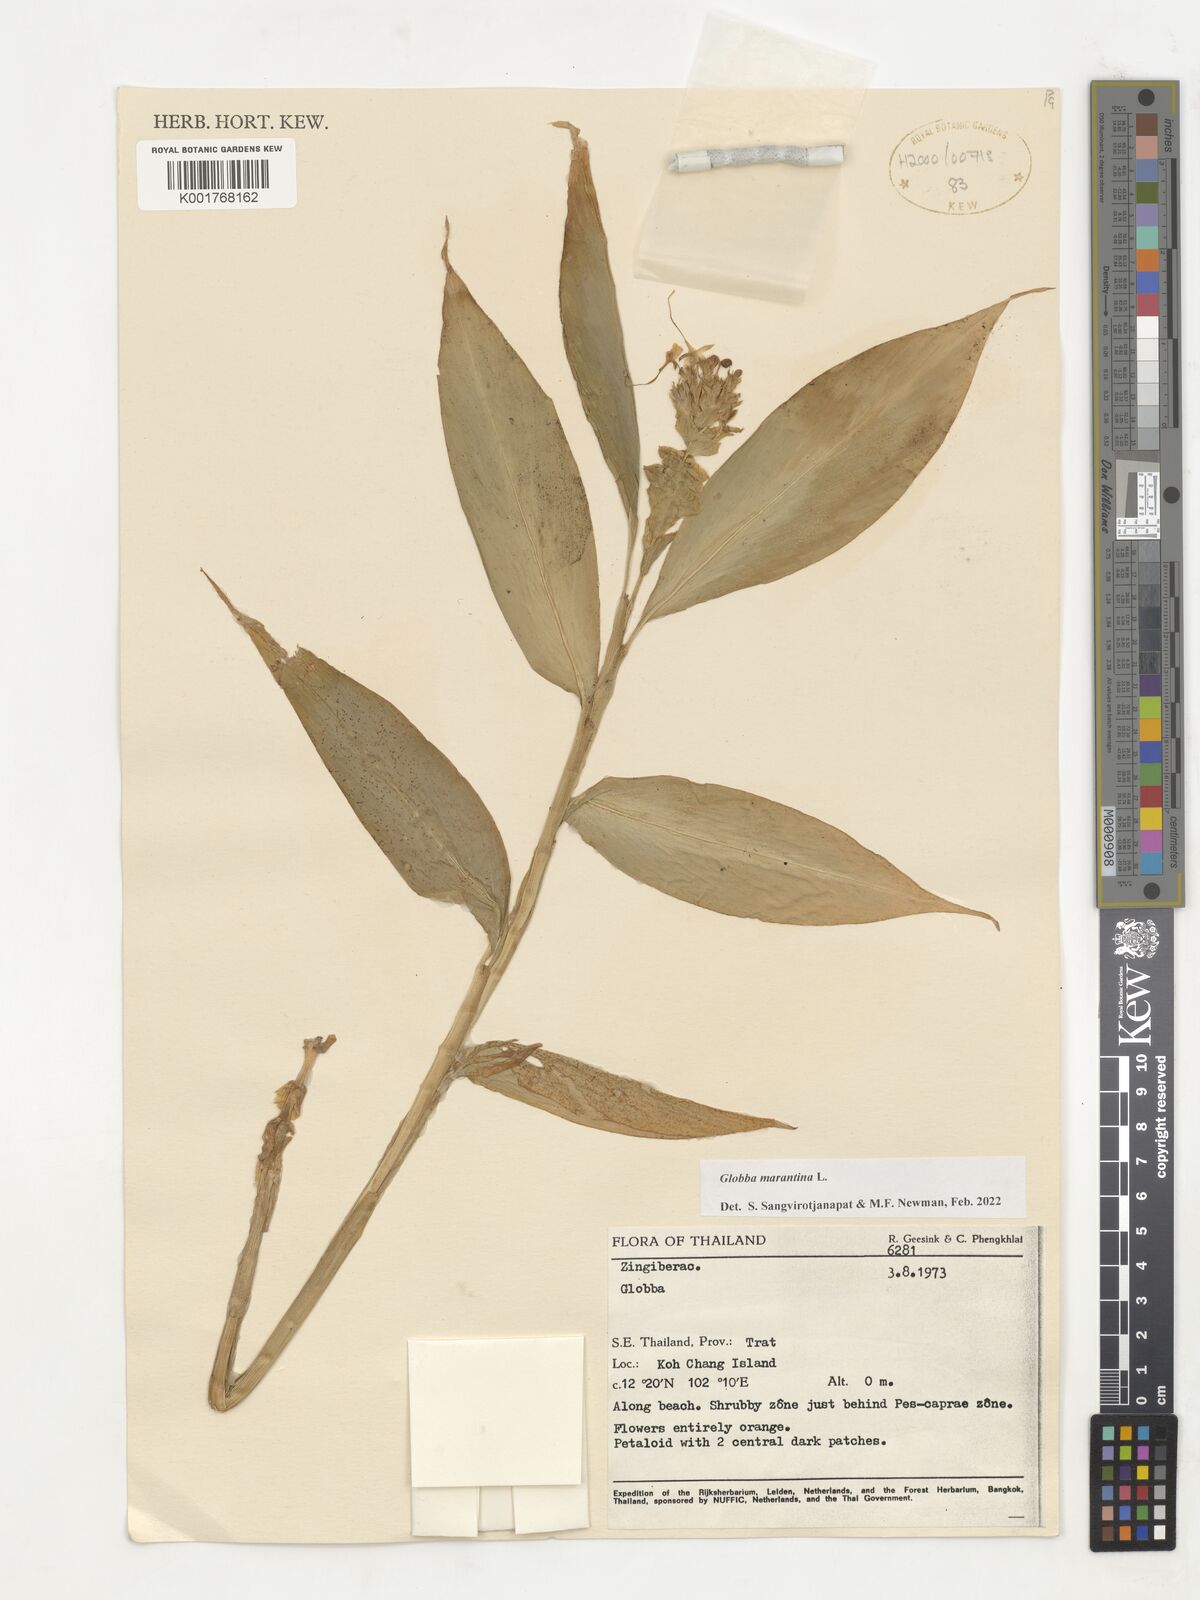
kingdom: Plantae
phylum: Tracheophyta
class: Liliopsida
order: Zingiberales
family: Zingiberaceae
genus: Globba
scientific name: Globba marantina
